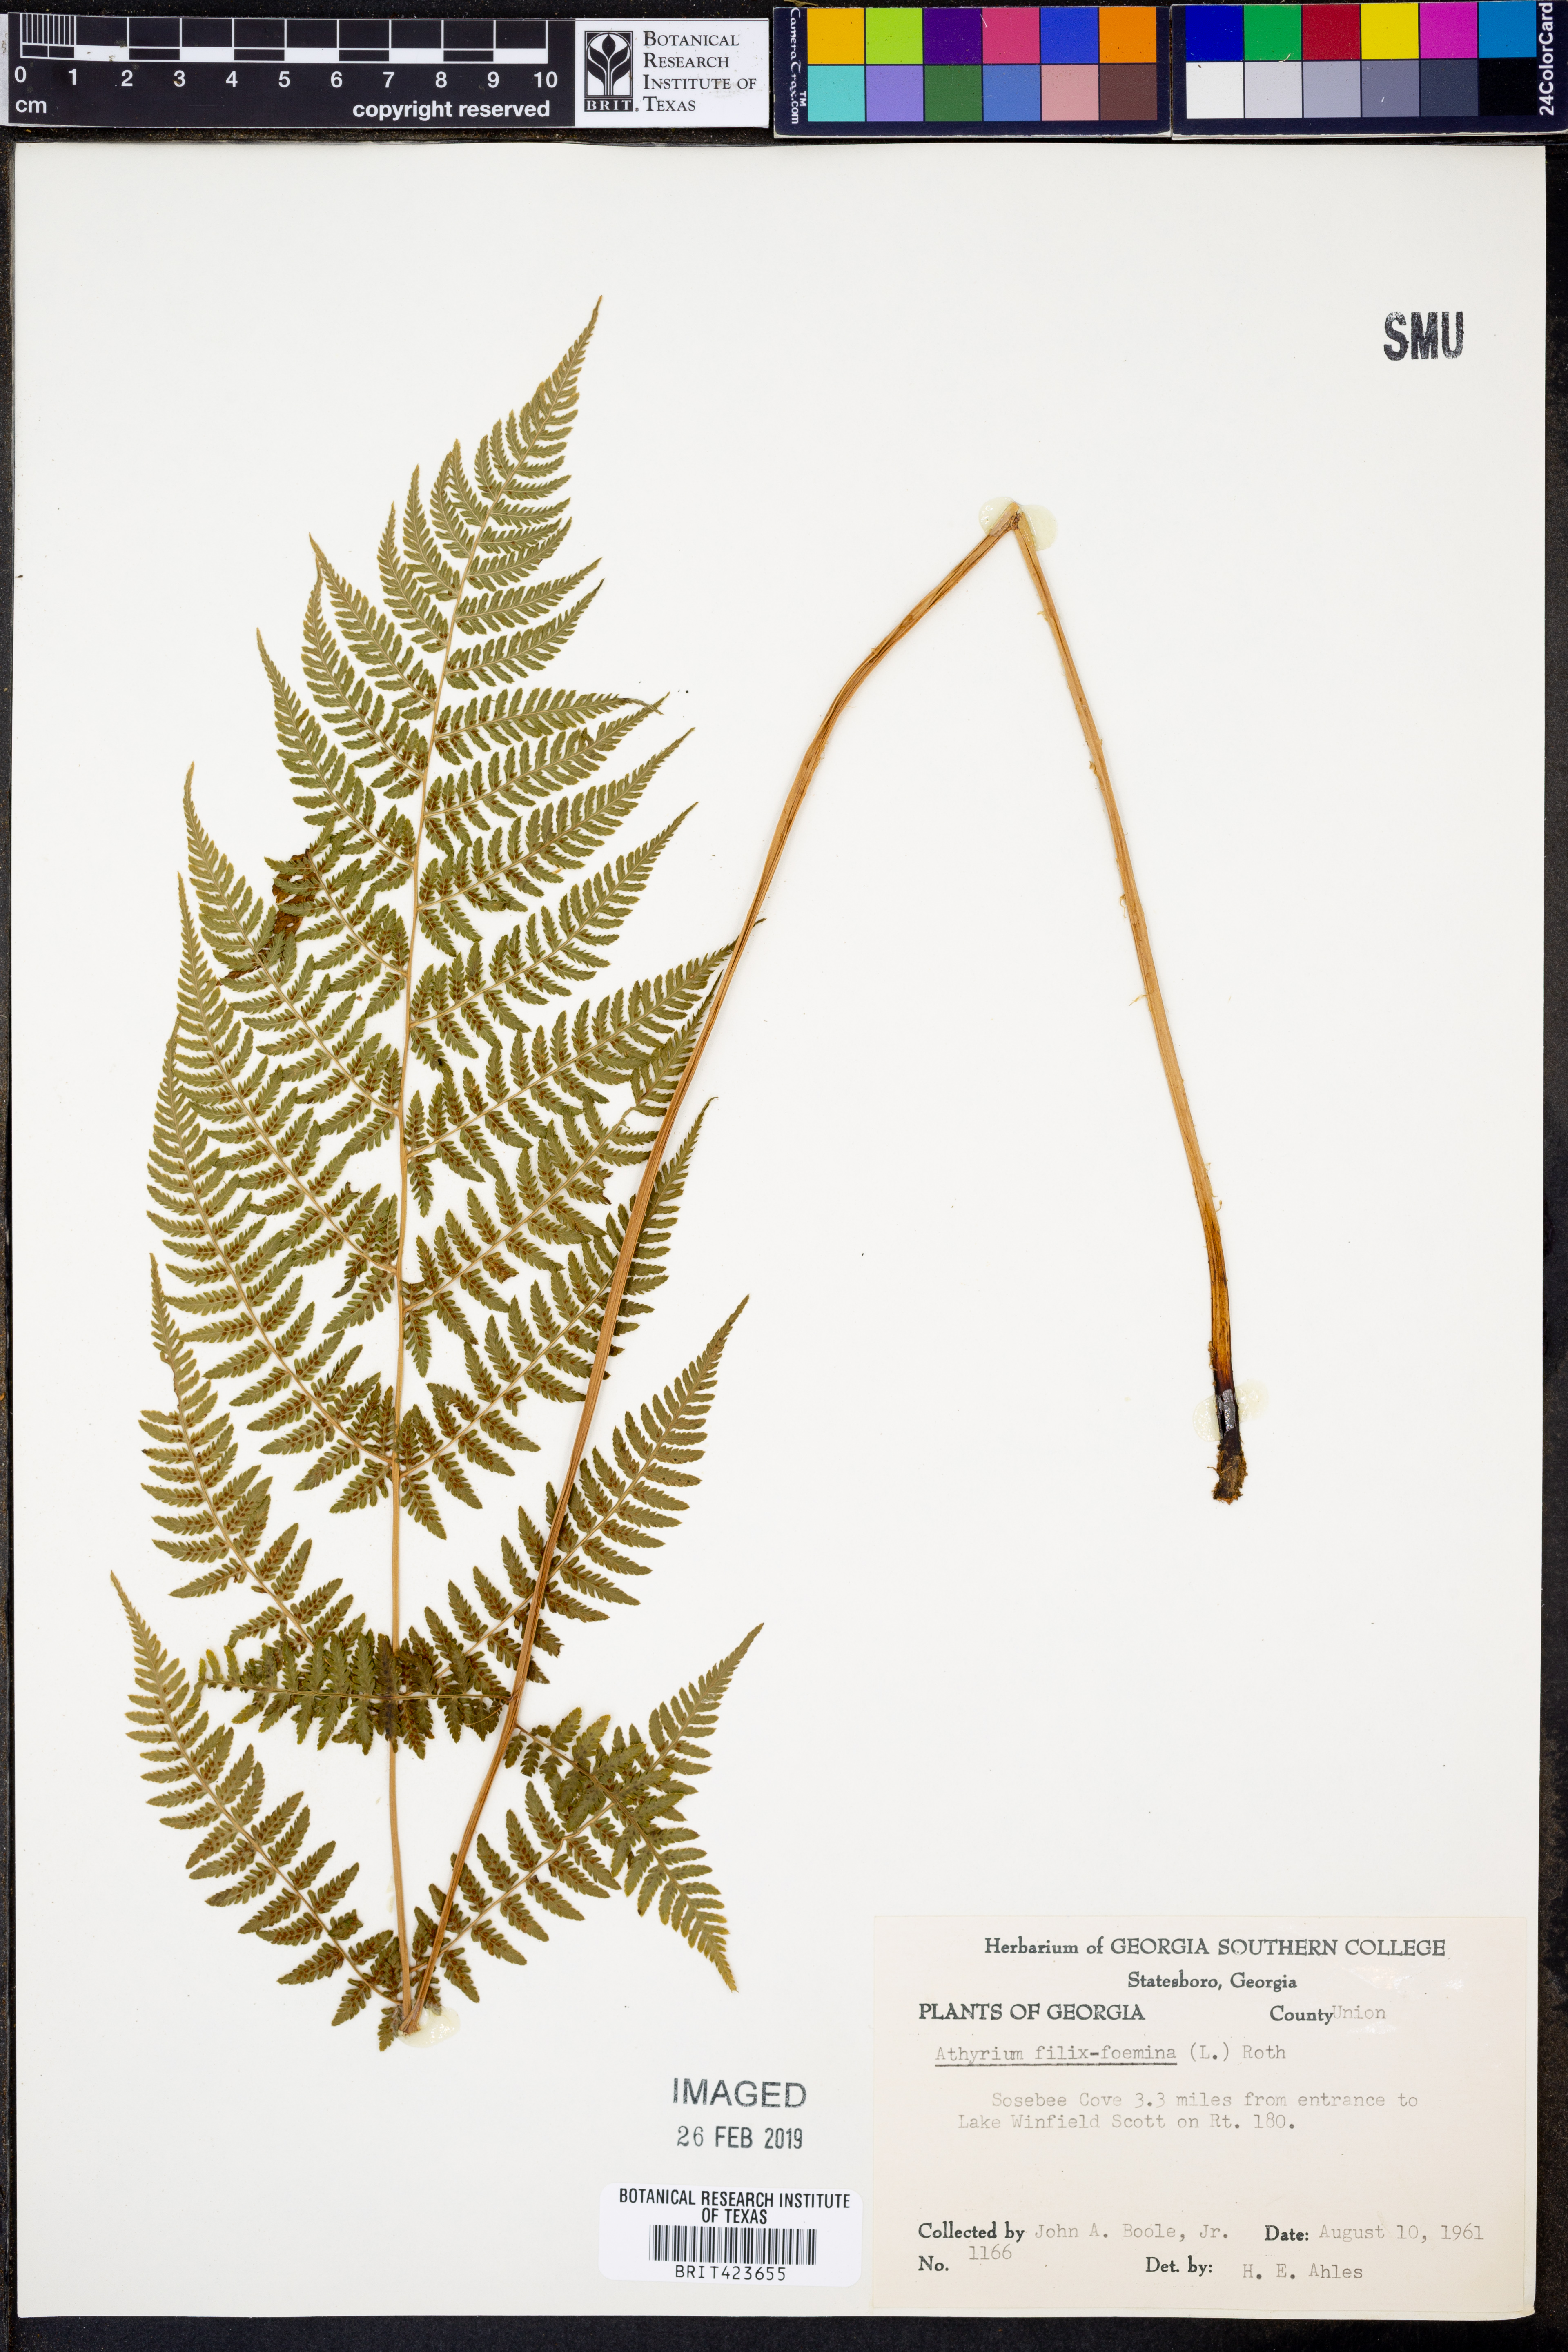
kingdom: Plantae
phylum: Tracheophyta
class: Polypodiopsida
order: Polypodiales
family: Athyriaceae
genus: Athyrium
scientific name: Athyrium filix-femina
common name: Lady fern
